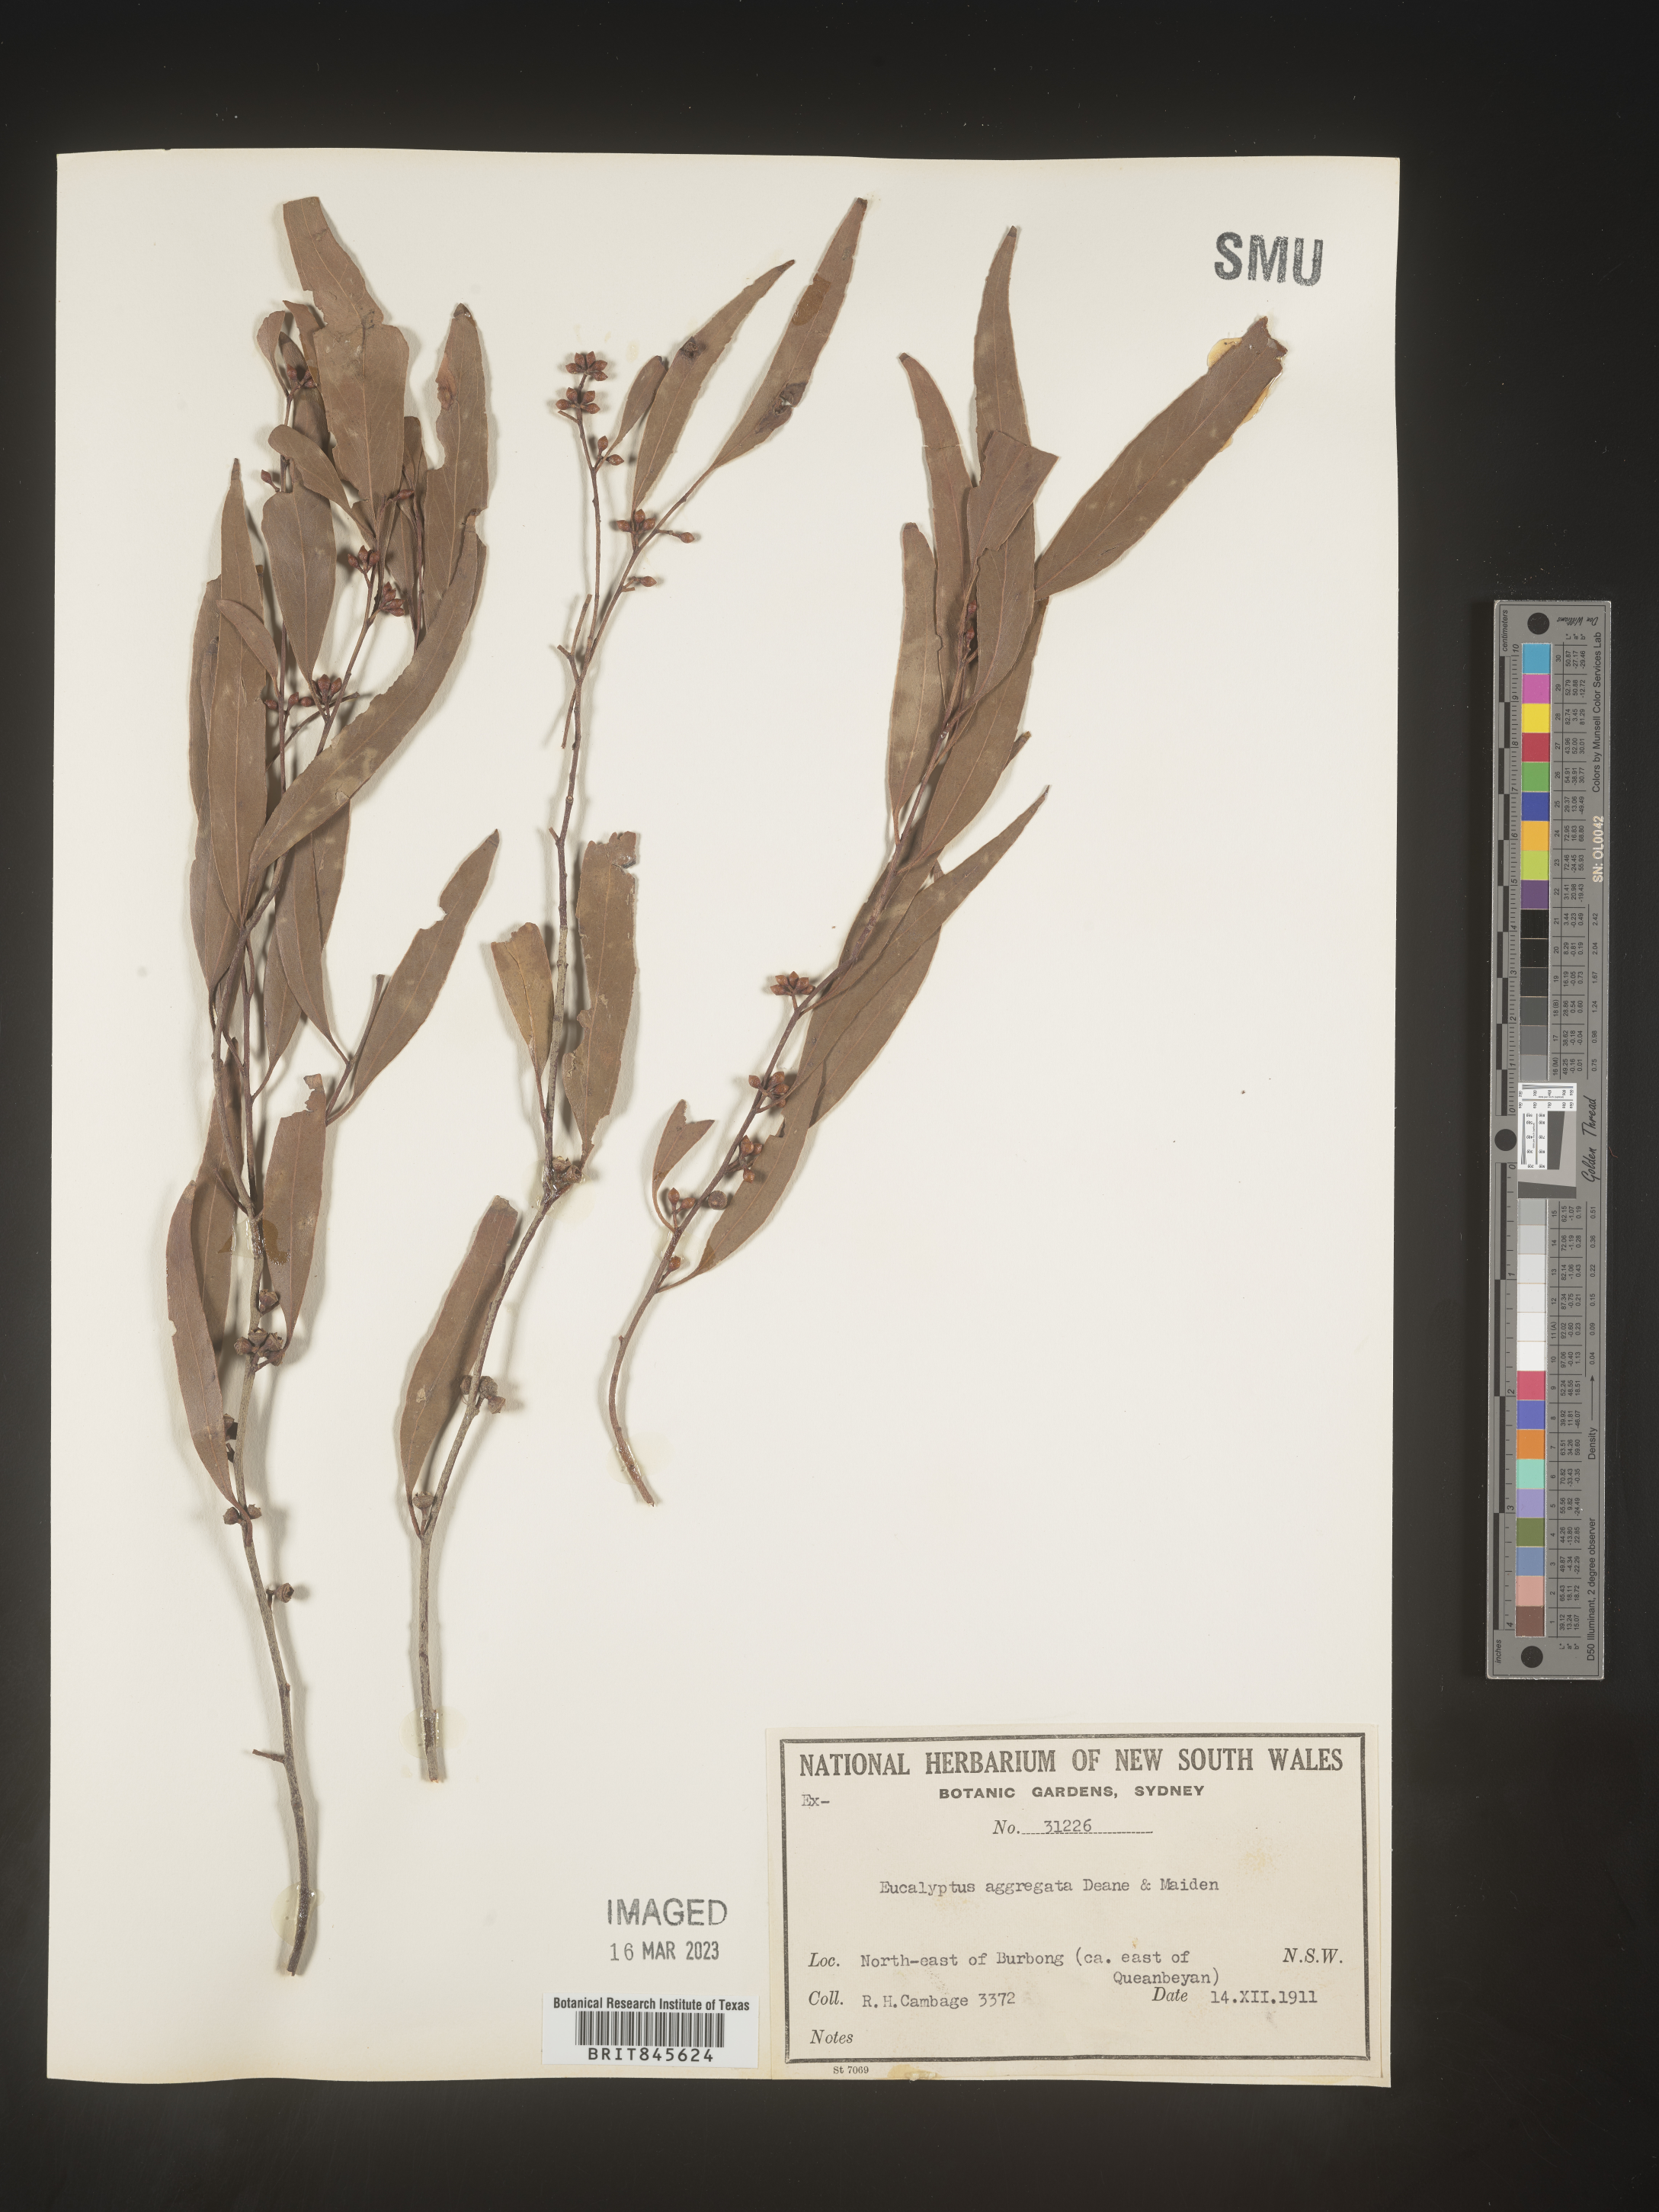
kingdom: Plantae
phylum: Tracheophyta
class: Magnoliopsida
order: Myrtales
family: Myrtaceae
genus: Eucalyptus
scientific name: Eucalyptus
